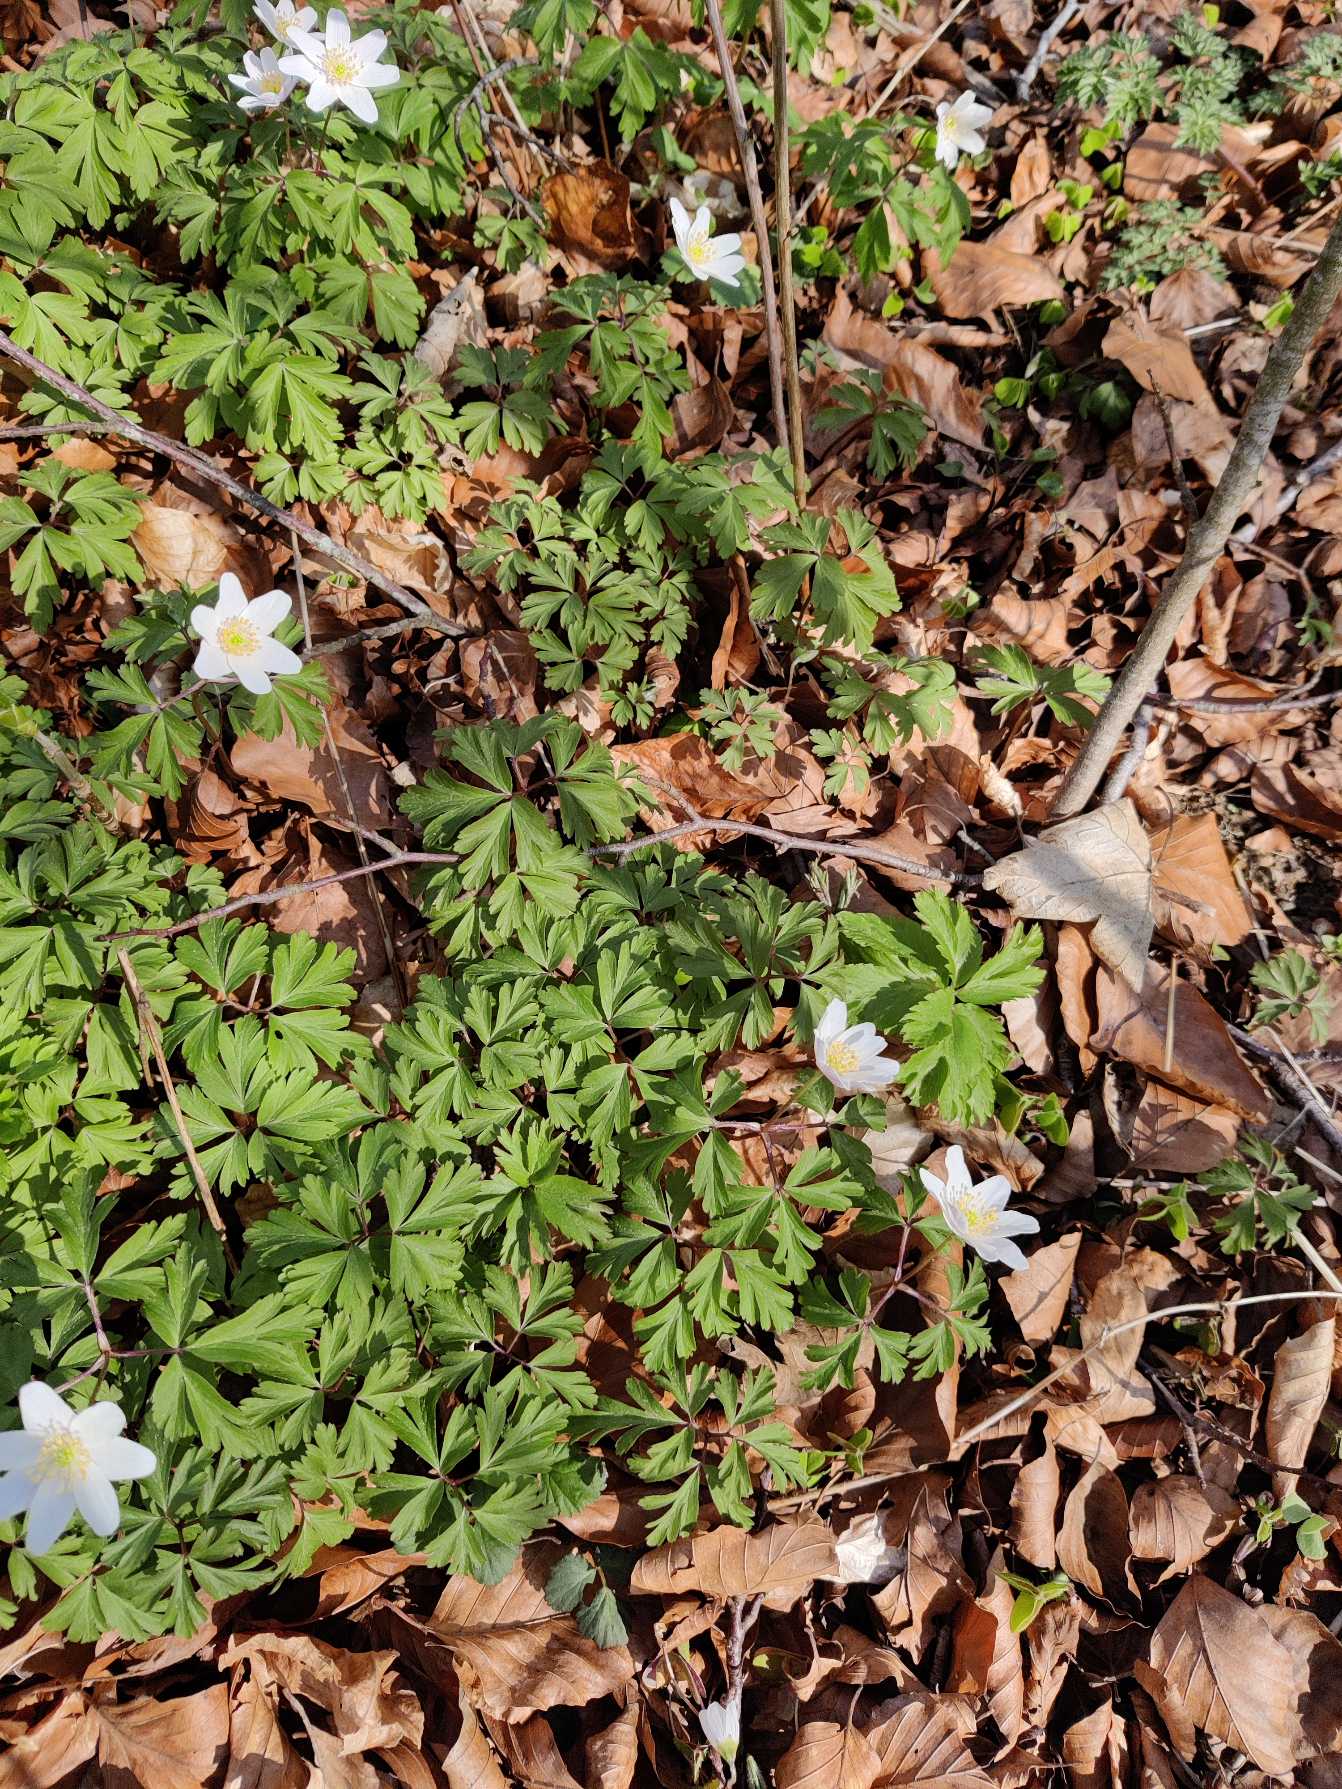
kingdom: Plantae
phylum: Tracheophyta
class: Magnoliopsida
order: Ranunculales
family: Ranunculaceae
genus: Anemone
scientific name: Anemone nemorosa
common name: Hvid anemone
